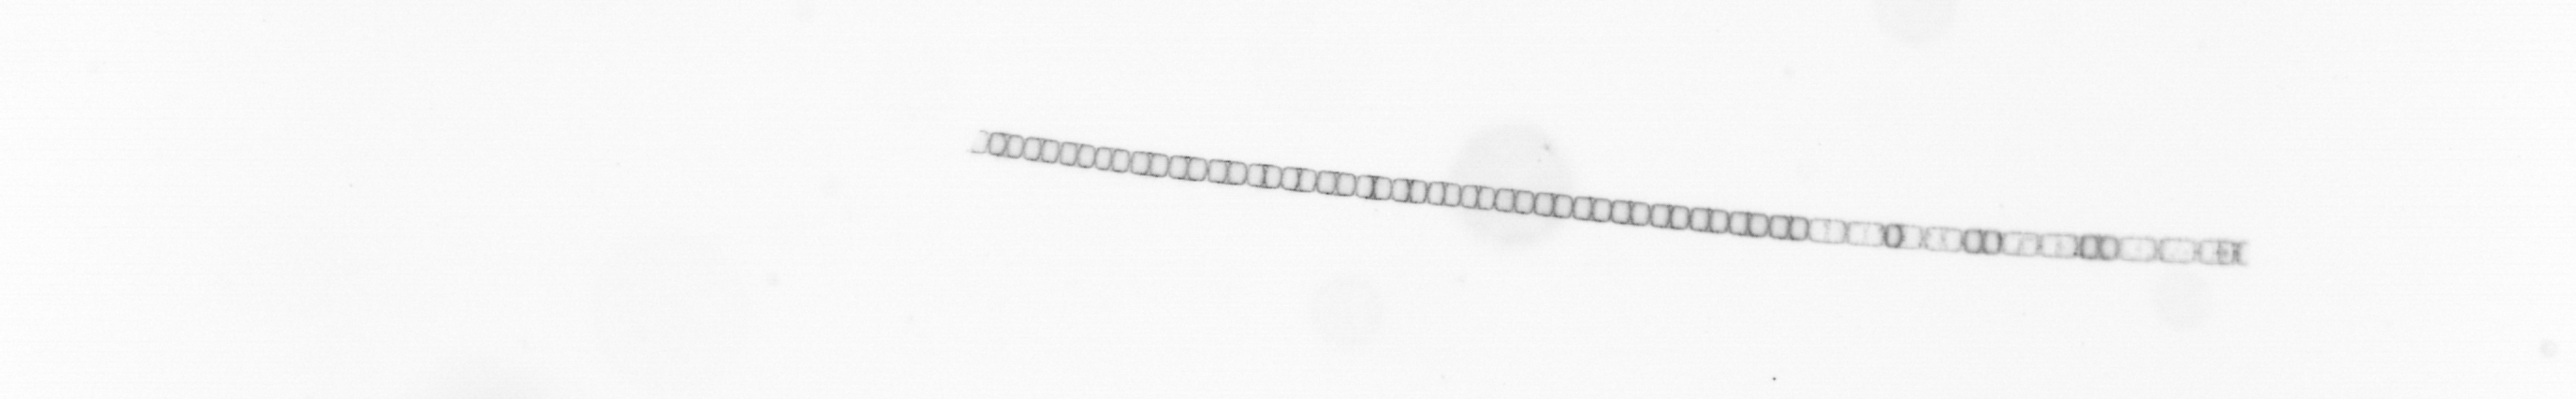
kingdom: Chromista
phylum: Ochrophyta
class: Bacillariophyceae
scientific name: Bacillariophyceae
